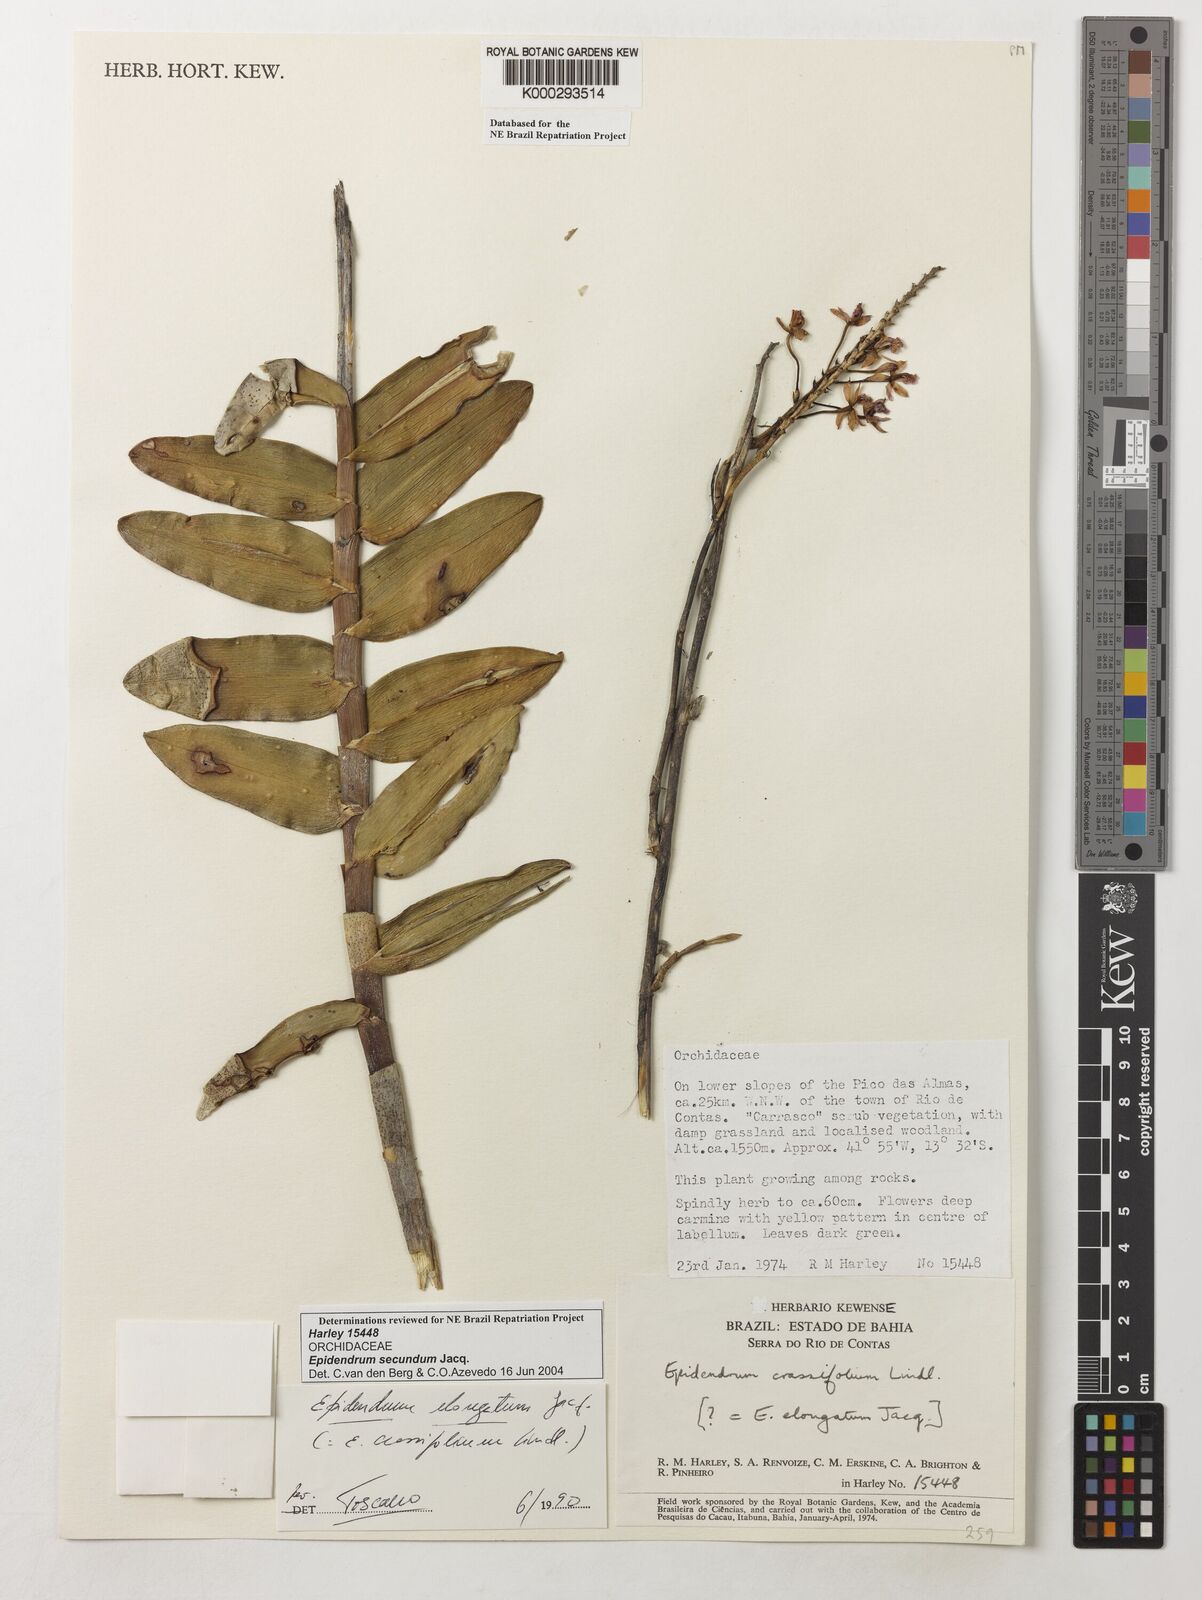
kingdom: Plantae
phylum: Tracheophyta
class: Liliopsida
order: Asparagales
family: Orchidaceae
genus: Epidendrum
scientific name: Epidendrum secundum
